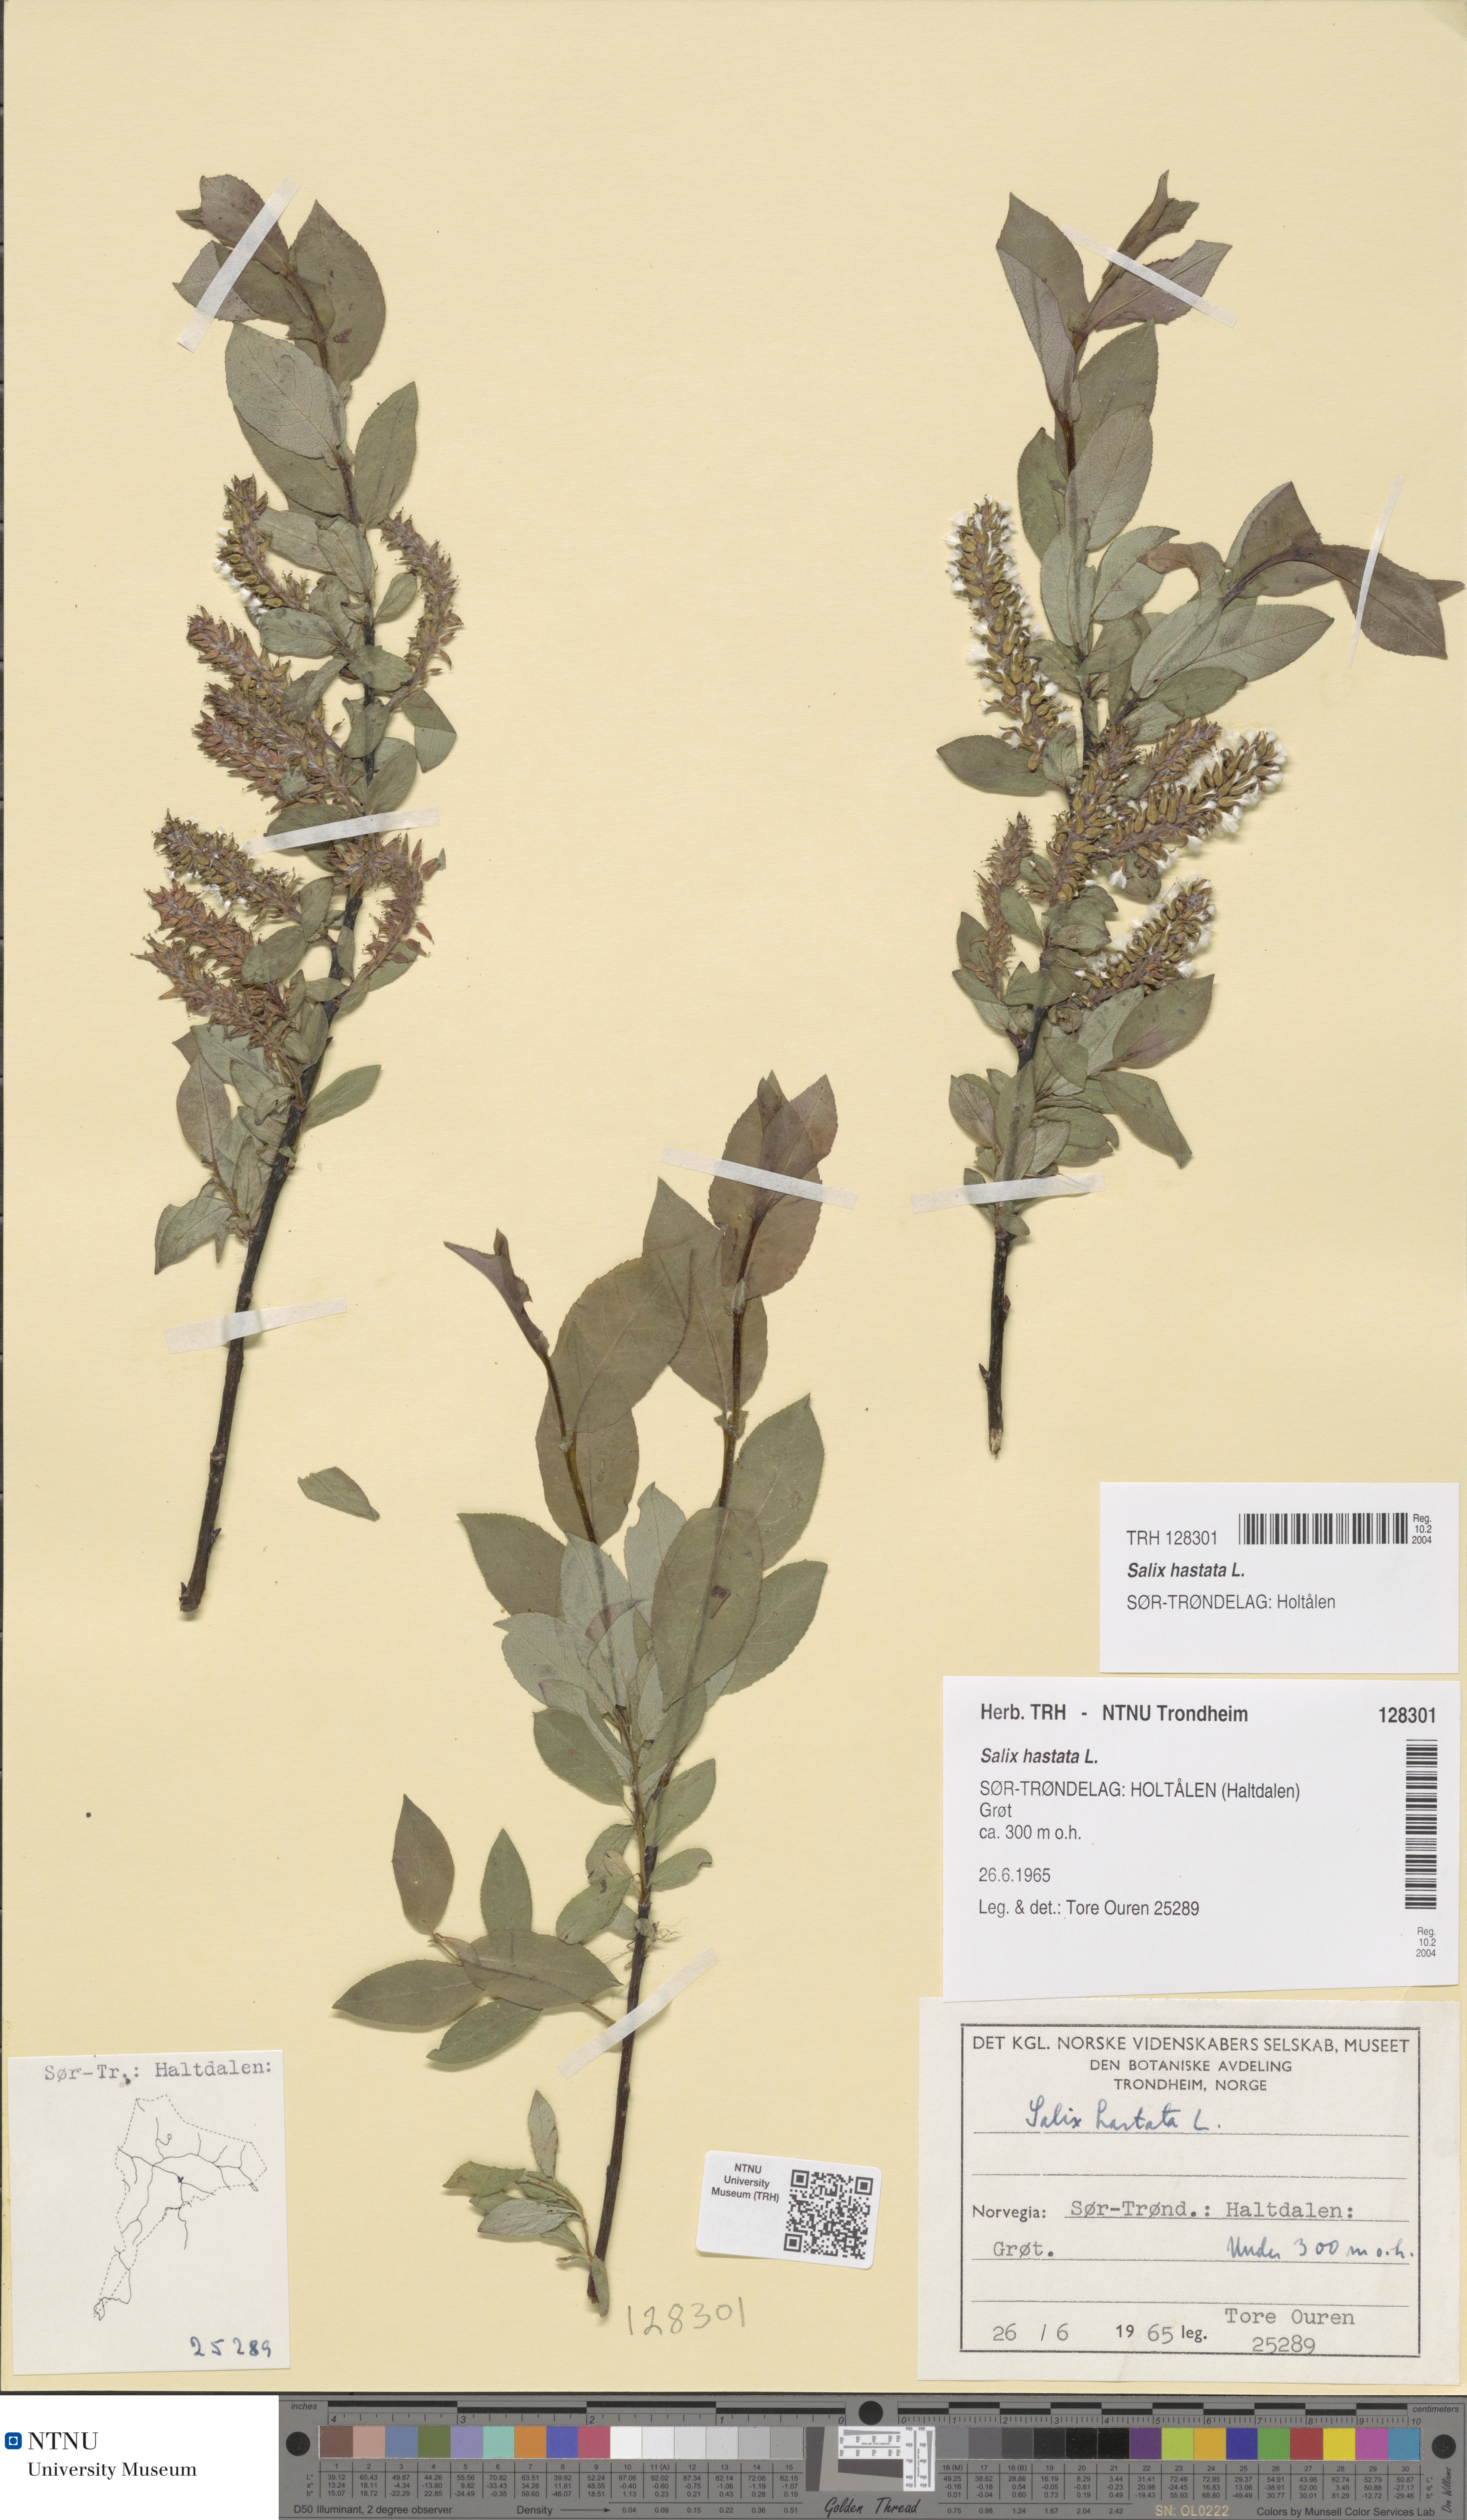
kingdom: Plantae
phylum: Tracheophyta
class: Magnoliopsida
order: Malpighiales
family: Salicaceae
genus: Salix
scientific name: Salix hastata
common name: Halberd willow
